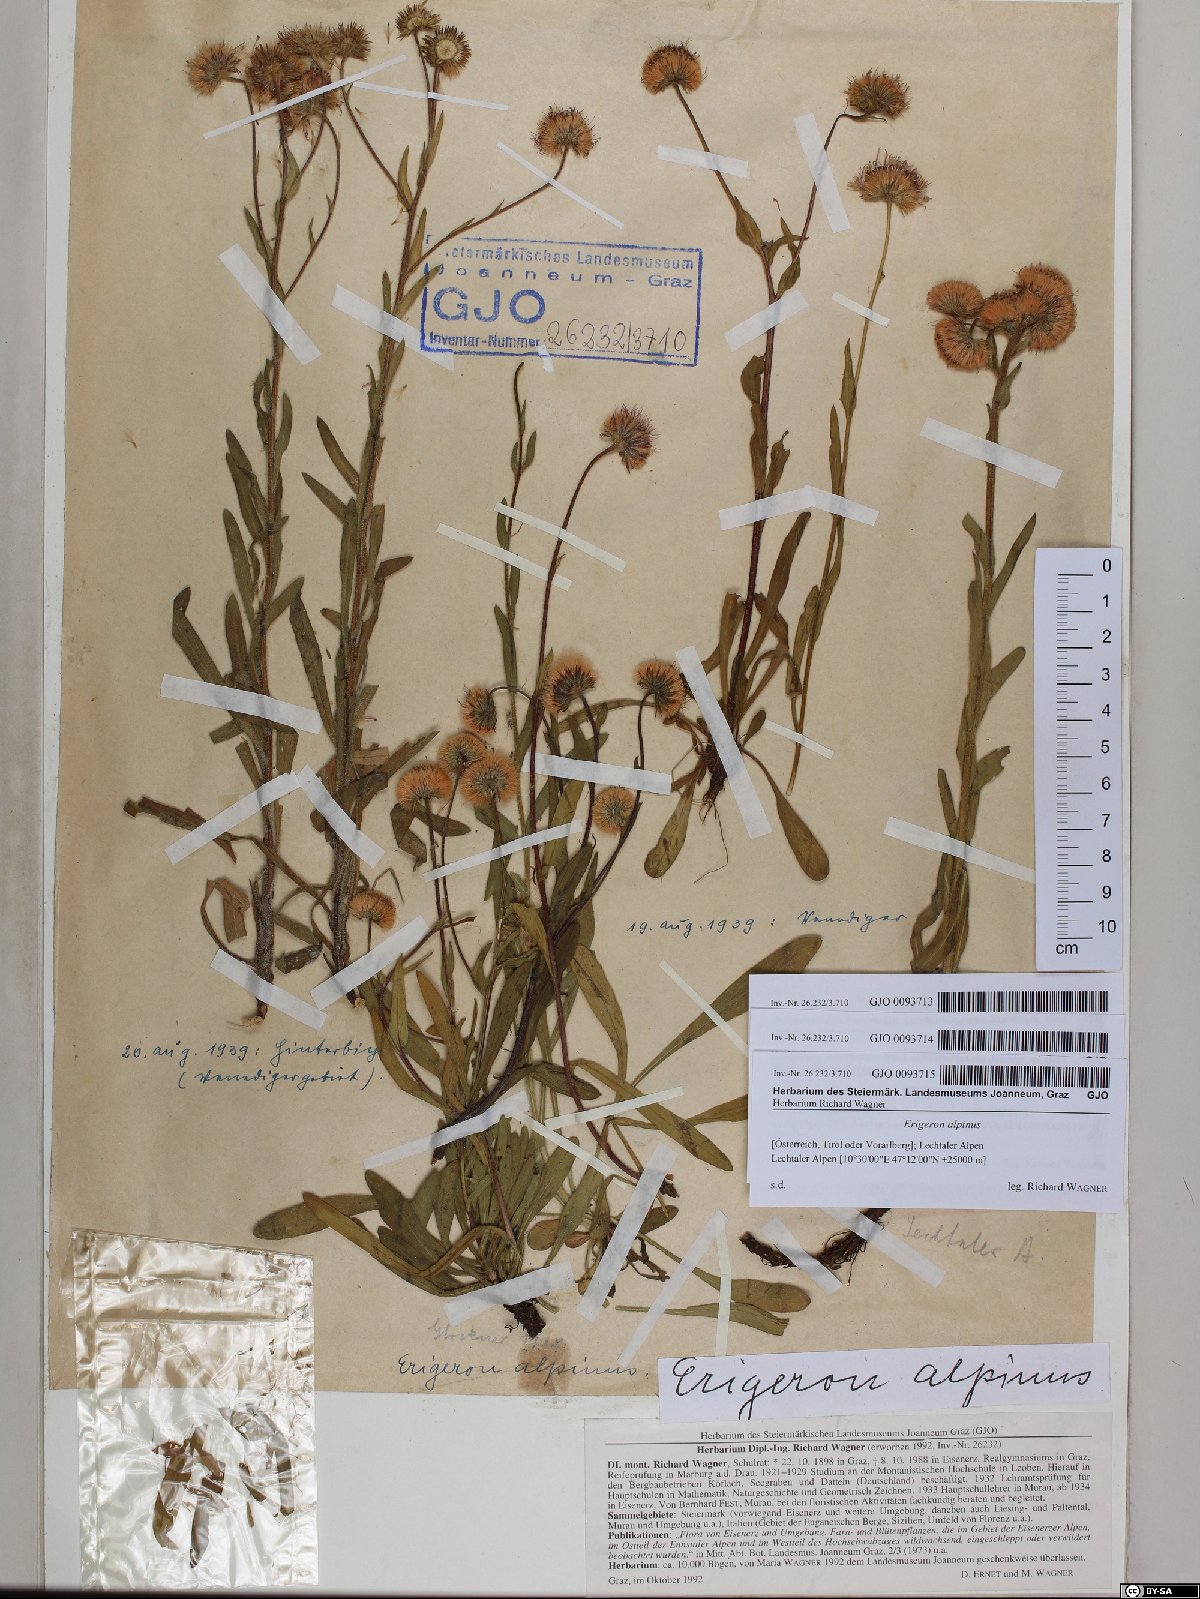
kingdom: Plantae
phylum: Tracheophyta
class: Magnoliopsida
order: Asterales
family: Asteraceae
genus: Erigeron
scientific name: Erigeron alpinus
